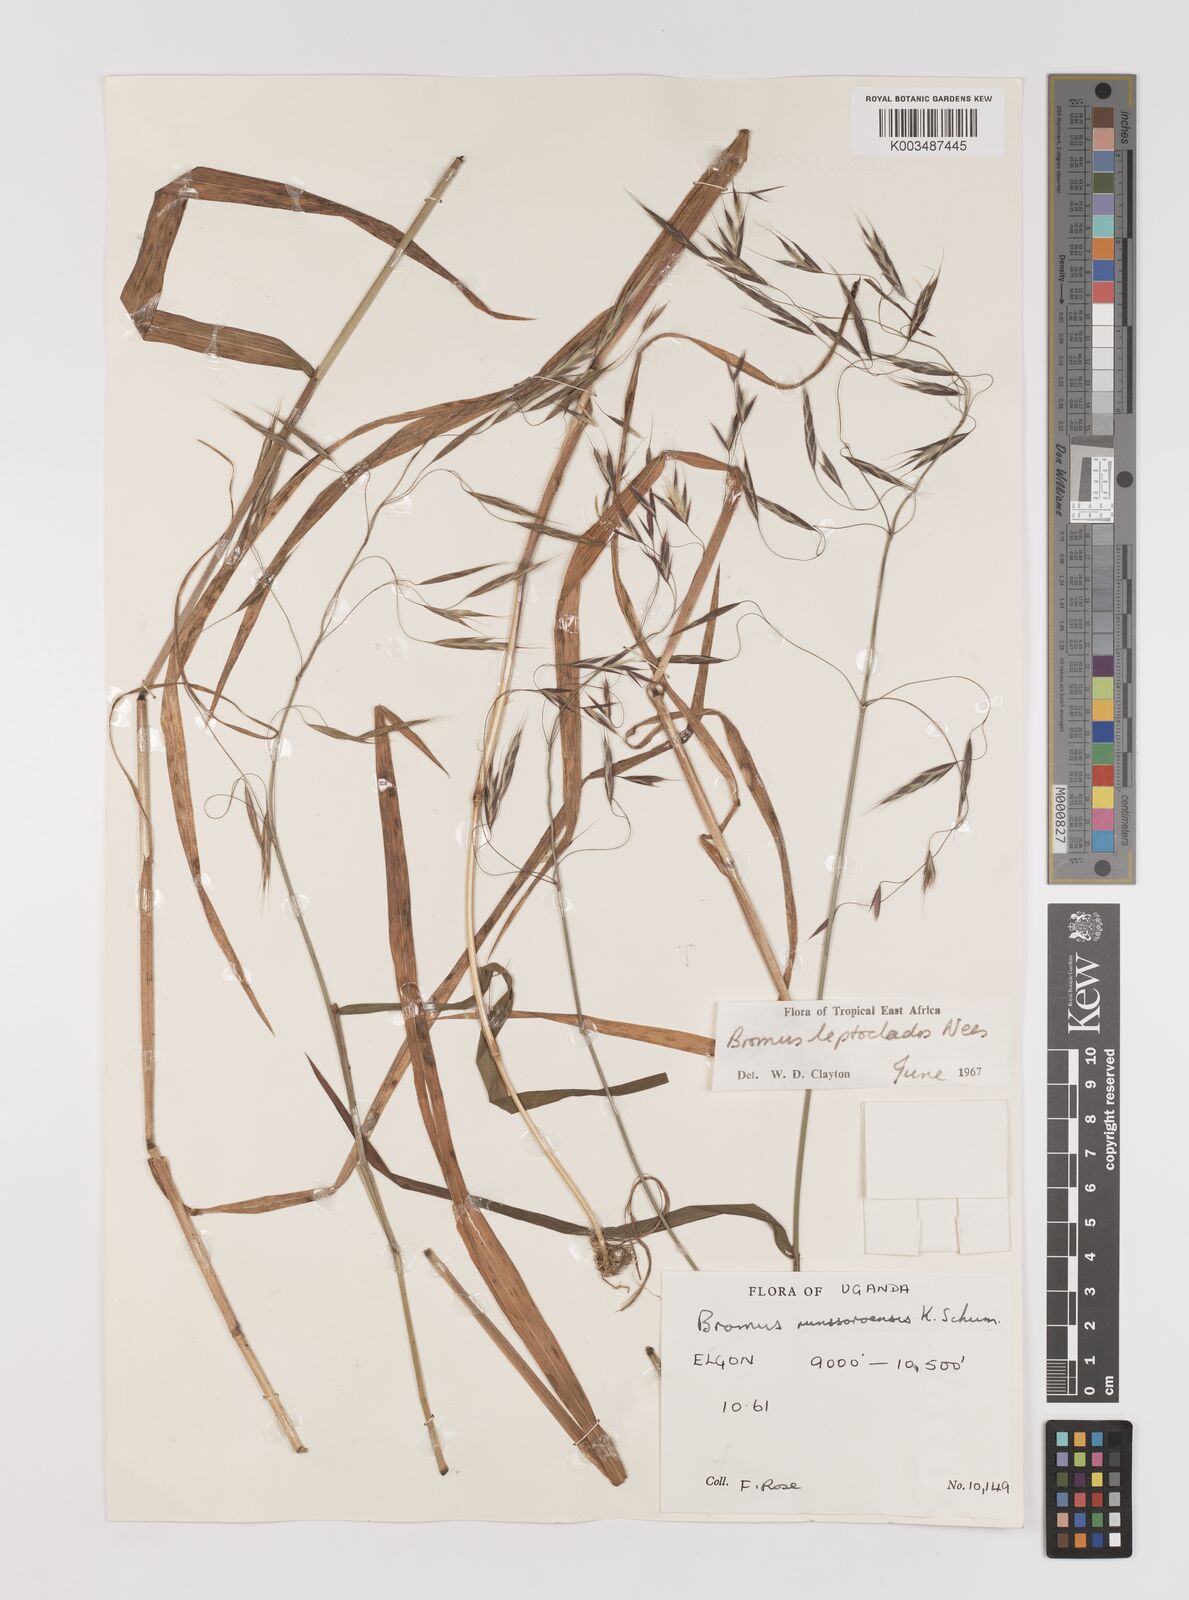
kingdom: Plantae
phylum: Tracheophyta
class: Liliopsida
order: Poales
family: Poaceae
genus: Bromus
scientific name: Bromus leptoclados
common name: Mountain bromegrass
